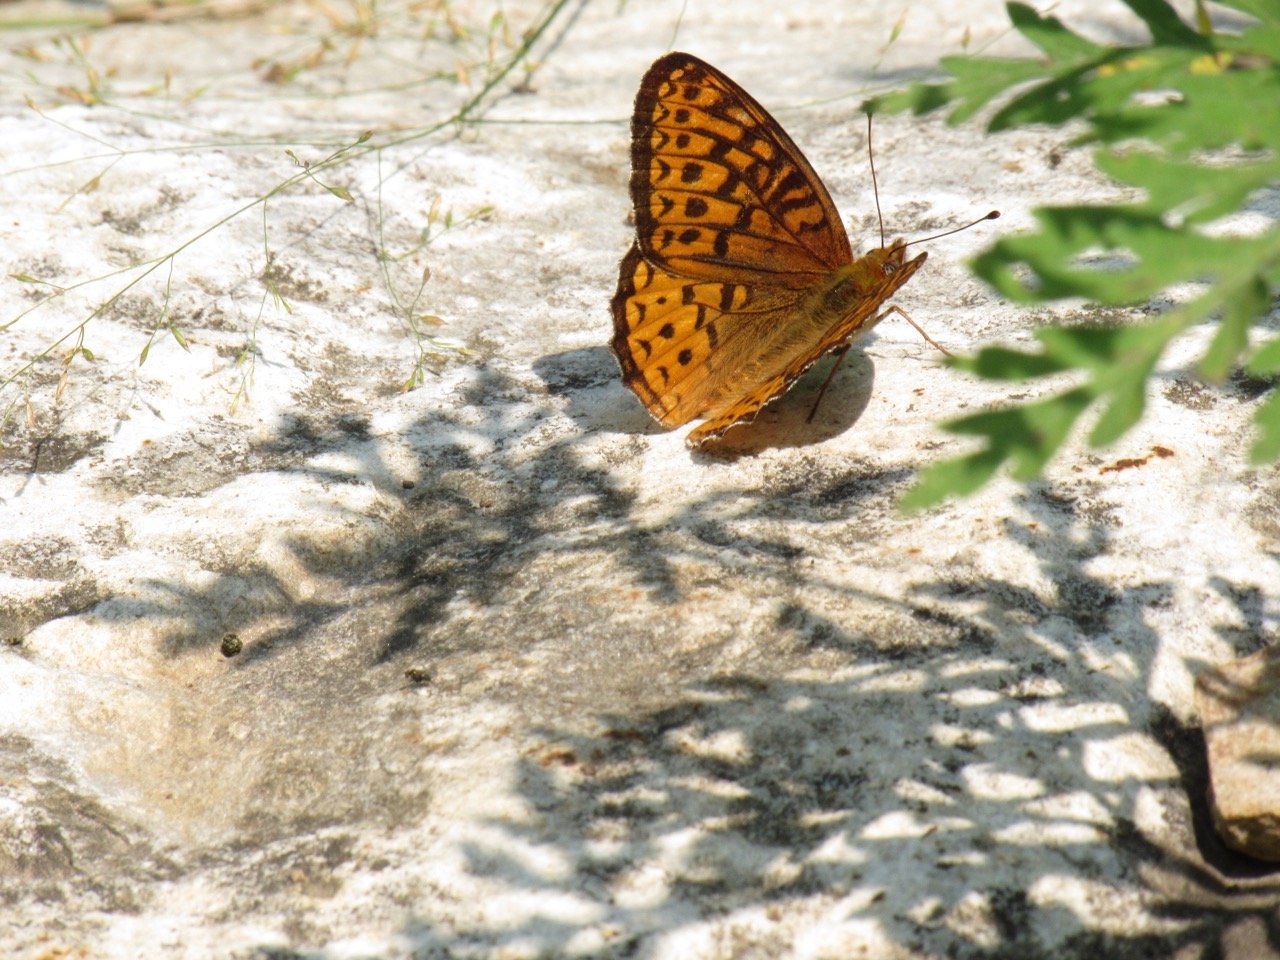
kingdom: Animalia
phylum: Arthropoda
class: Insecta
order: Lepidoptera
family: Nymphalidae
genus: Speyeria
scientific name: Speyeria atlantis
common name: Atlantis Fritillary
